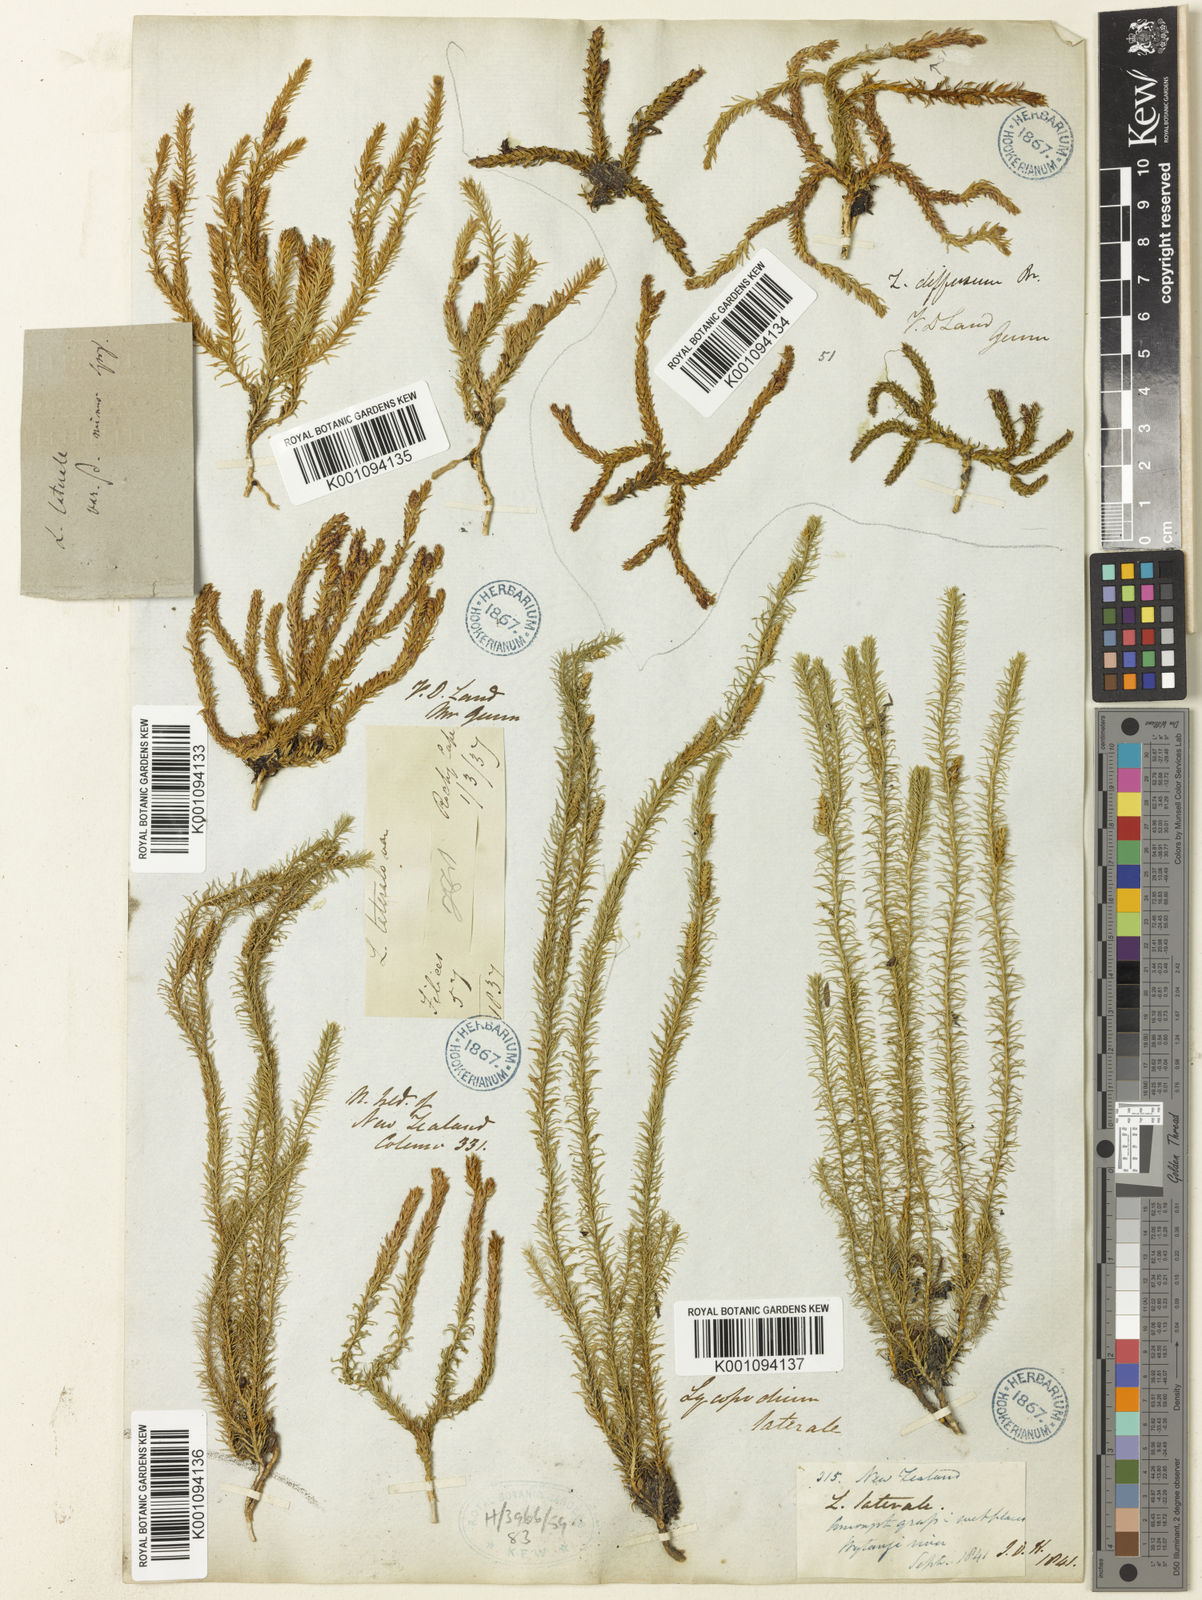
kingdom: Plantae
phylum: Tracheophyta
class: Lycopodiopsida
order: Lycopodiales
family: Lycopodiaceae
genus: Lateristachys
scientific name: Lateristachys lateralis
